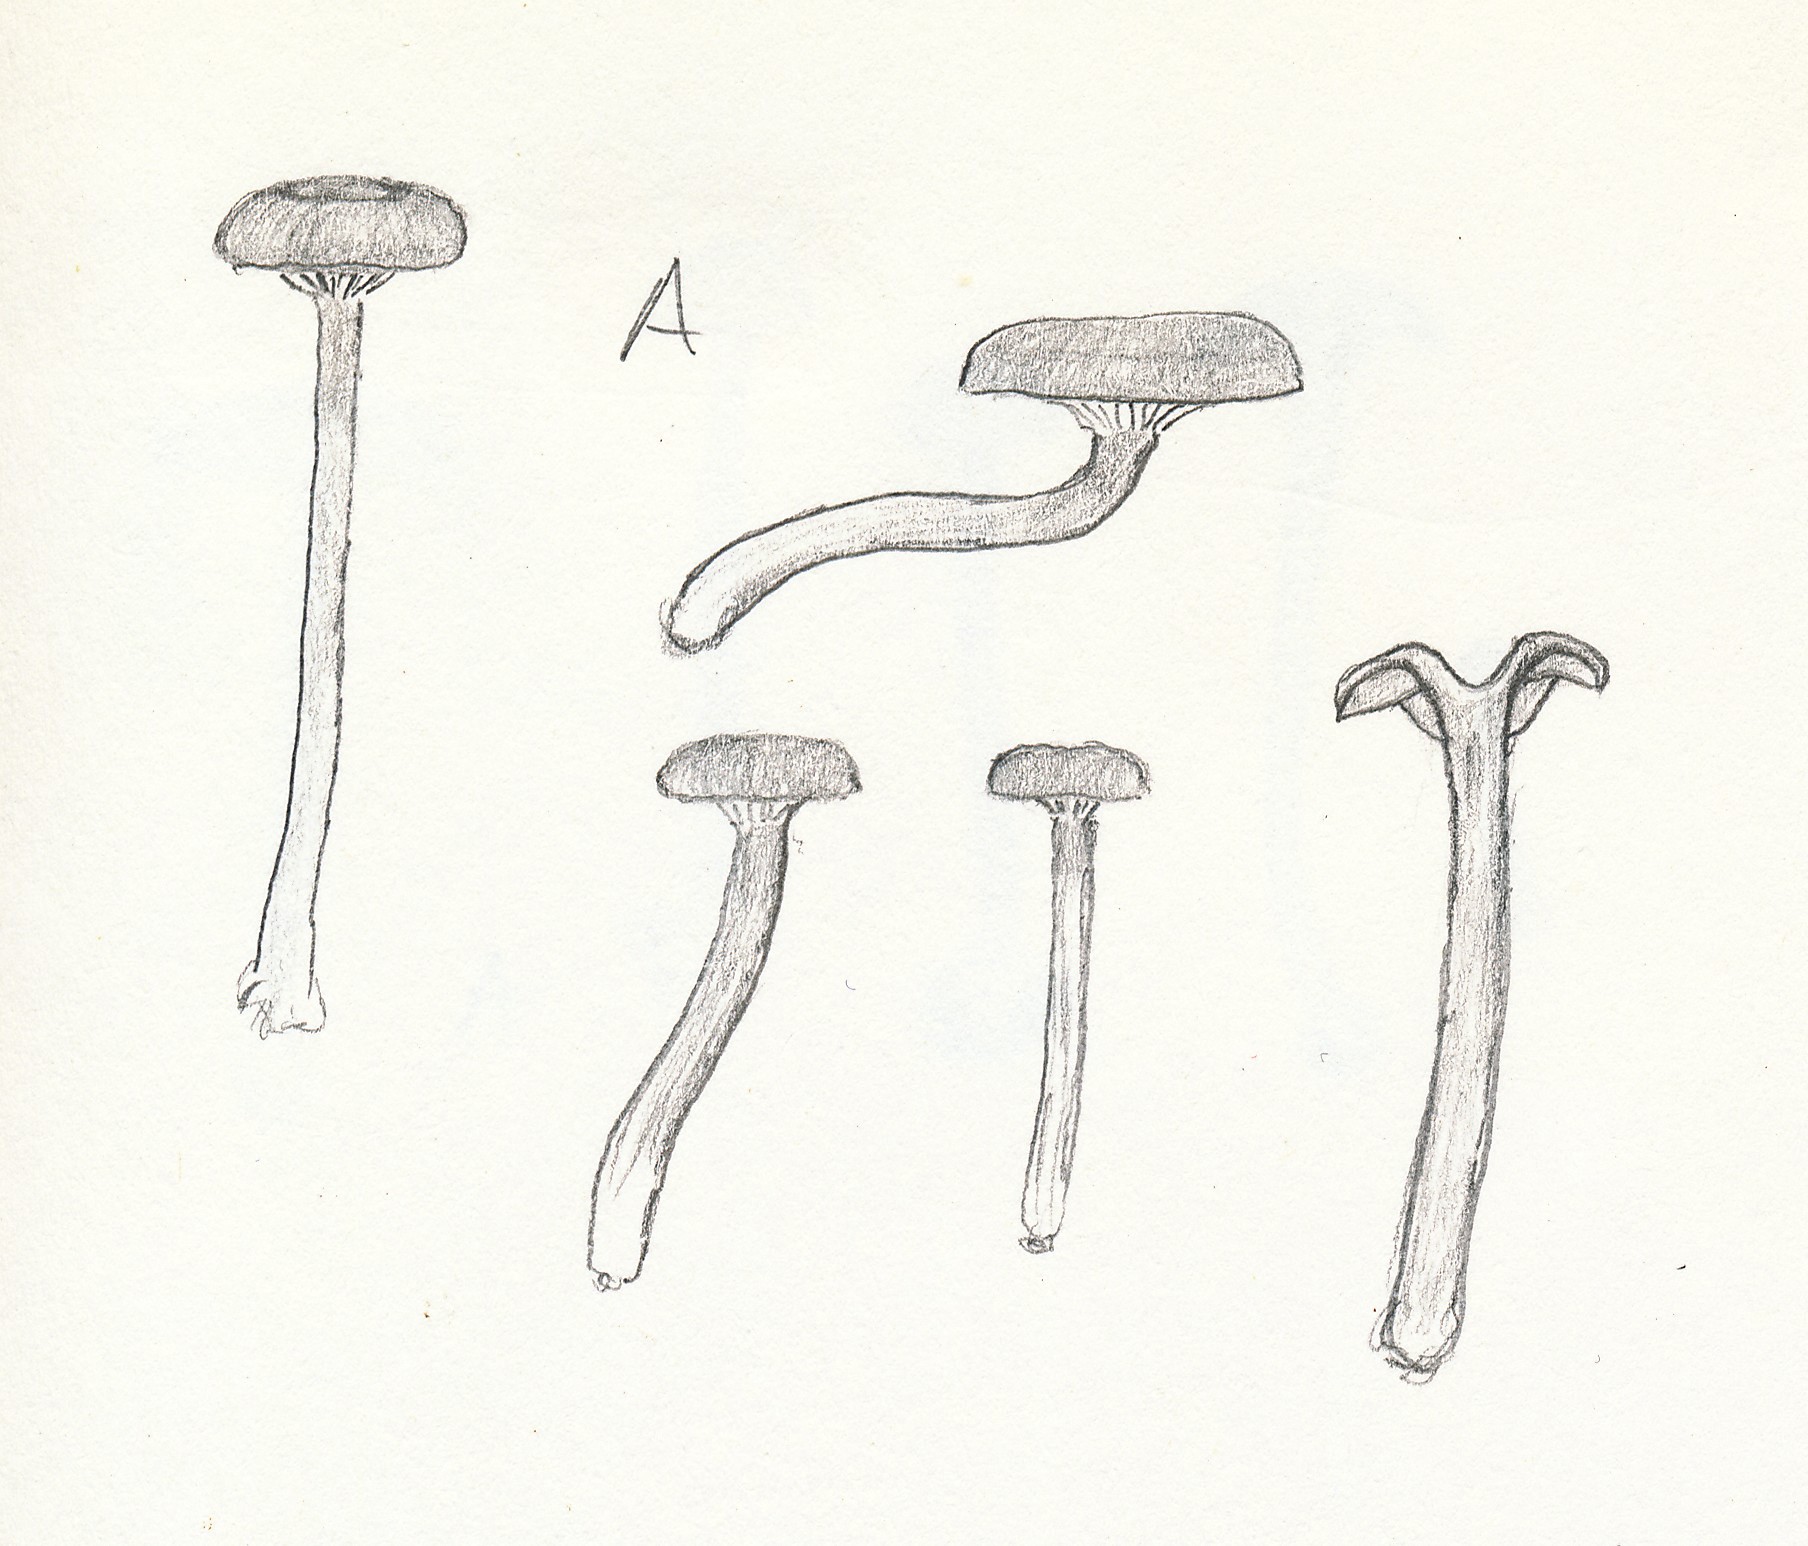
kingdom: Fungi
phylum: Basidiomycota
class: Agaricomycetes
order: Agaricales
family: Entolomataceae
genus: Entoloma
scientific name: Entoloma
